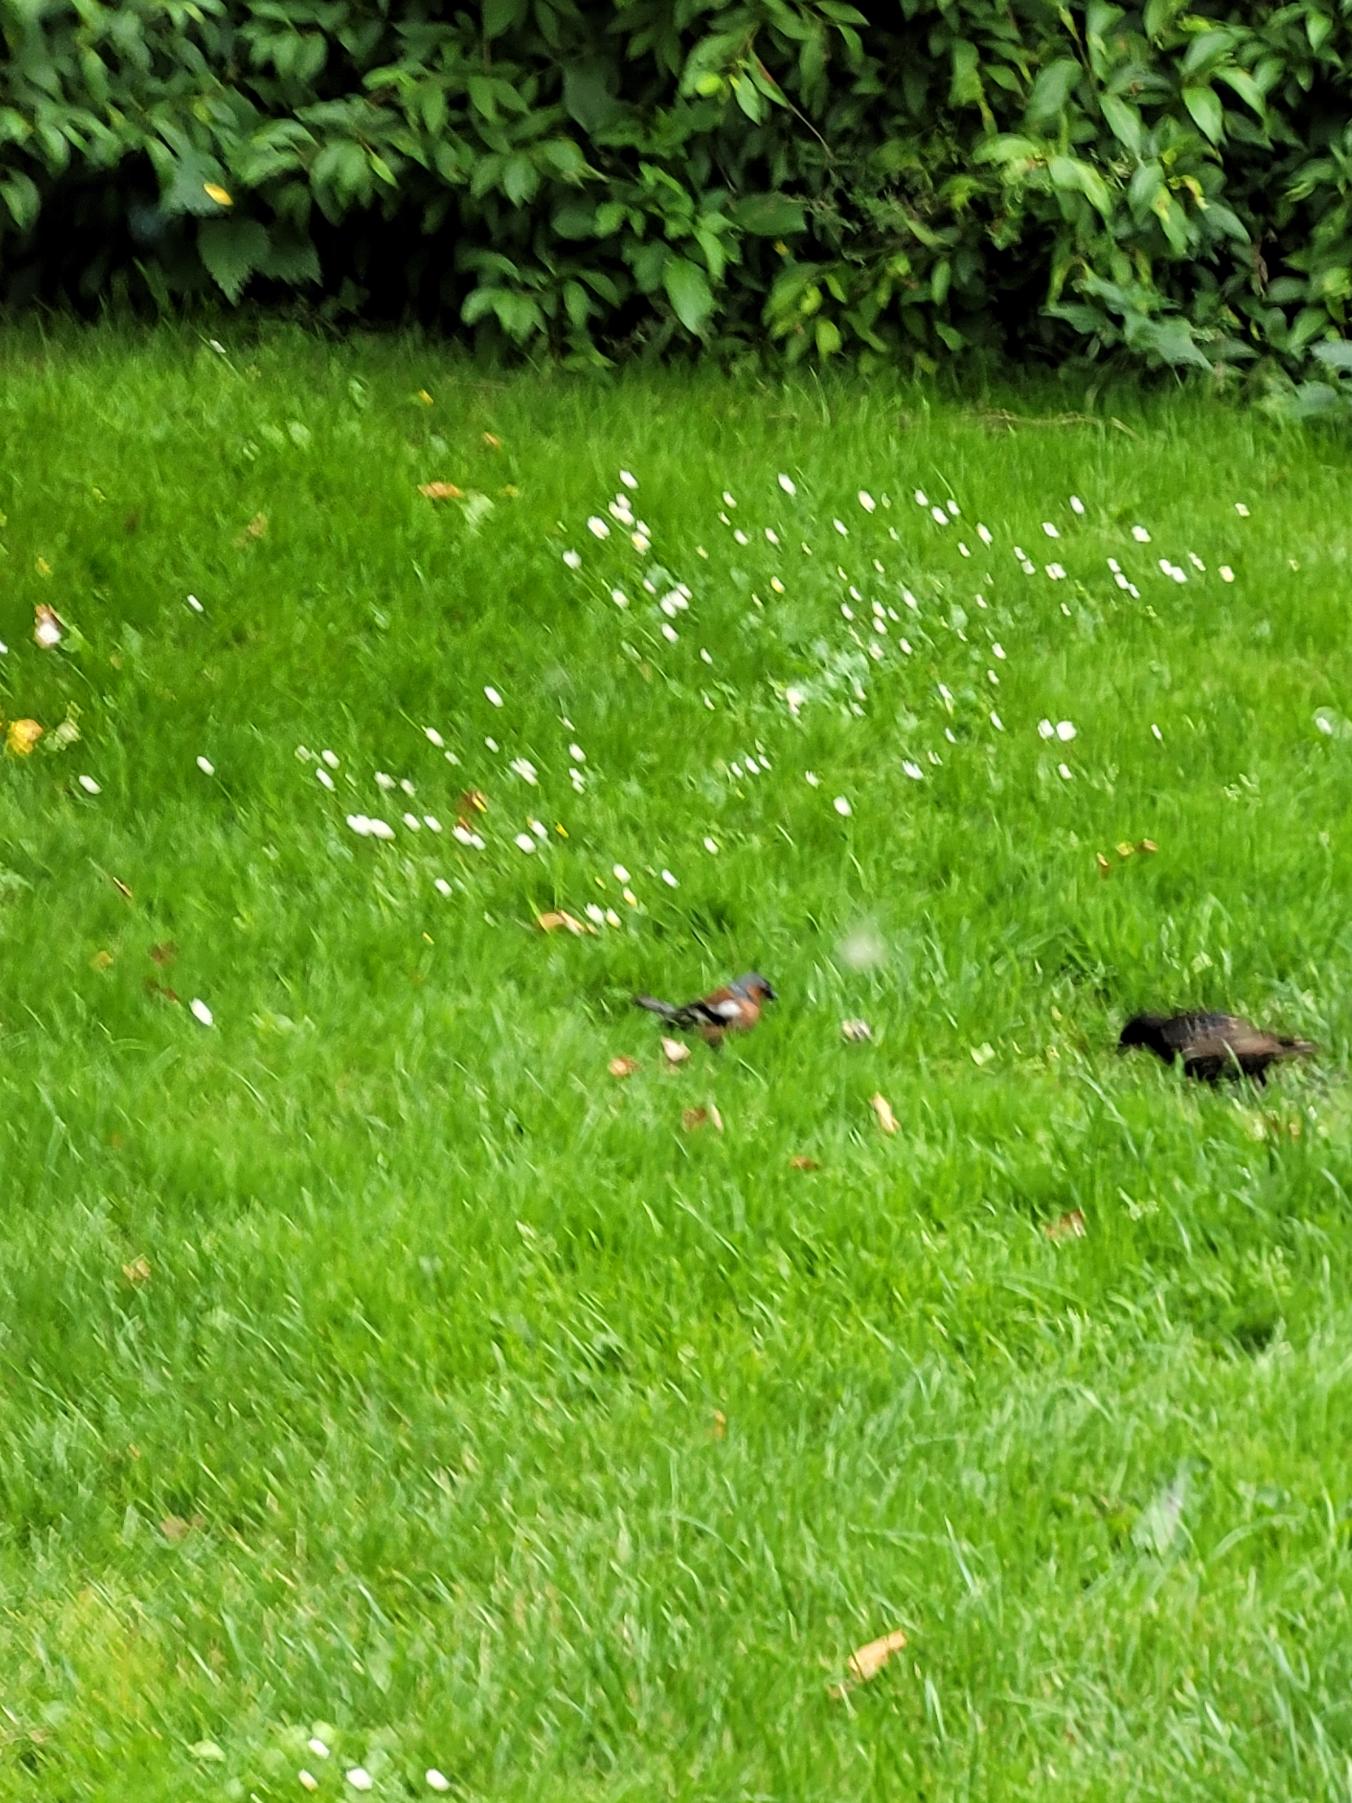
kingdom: Animalia
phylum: Chordata
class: Aves
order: Passeriformes
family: Fringillidae
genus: Fringilla
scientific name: Fringilla coelebs
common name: Bogfinke
